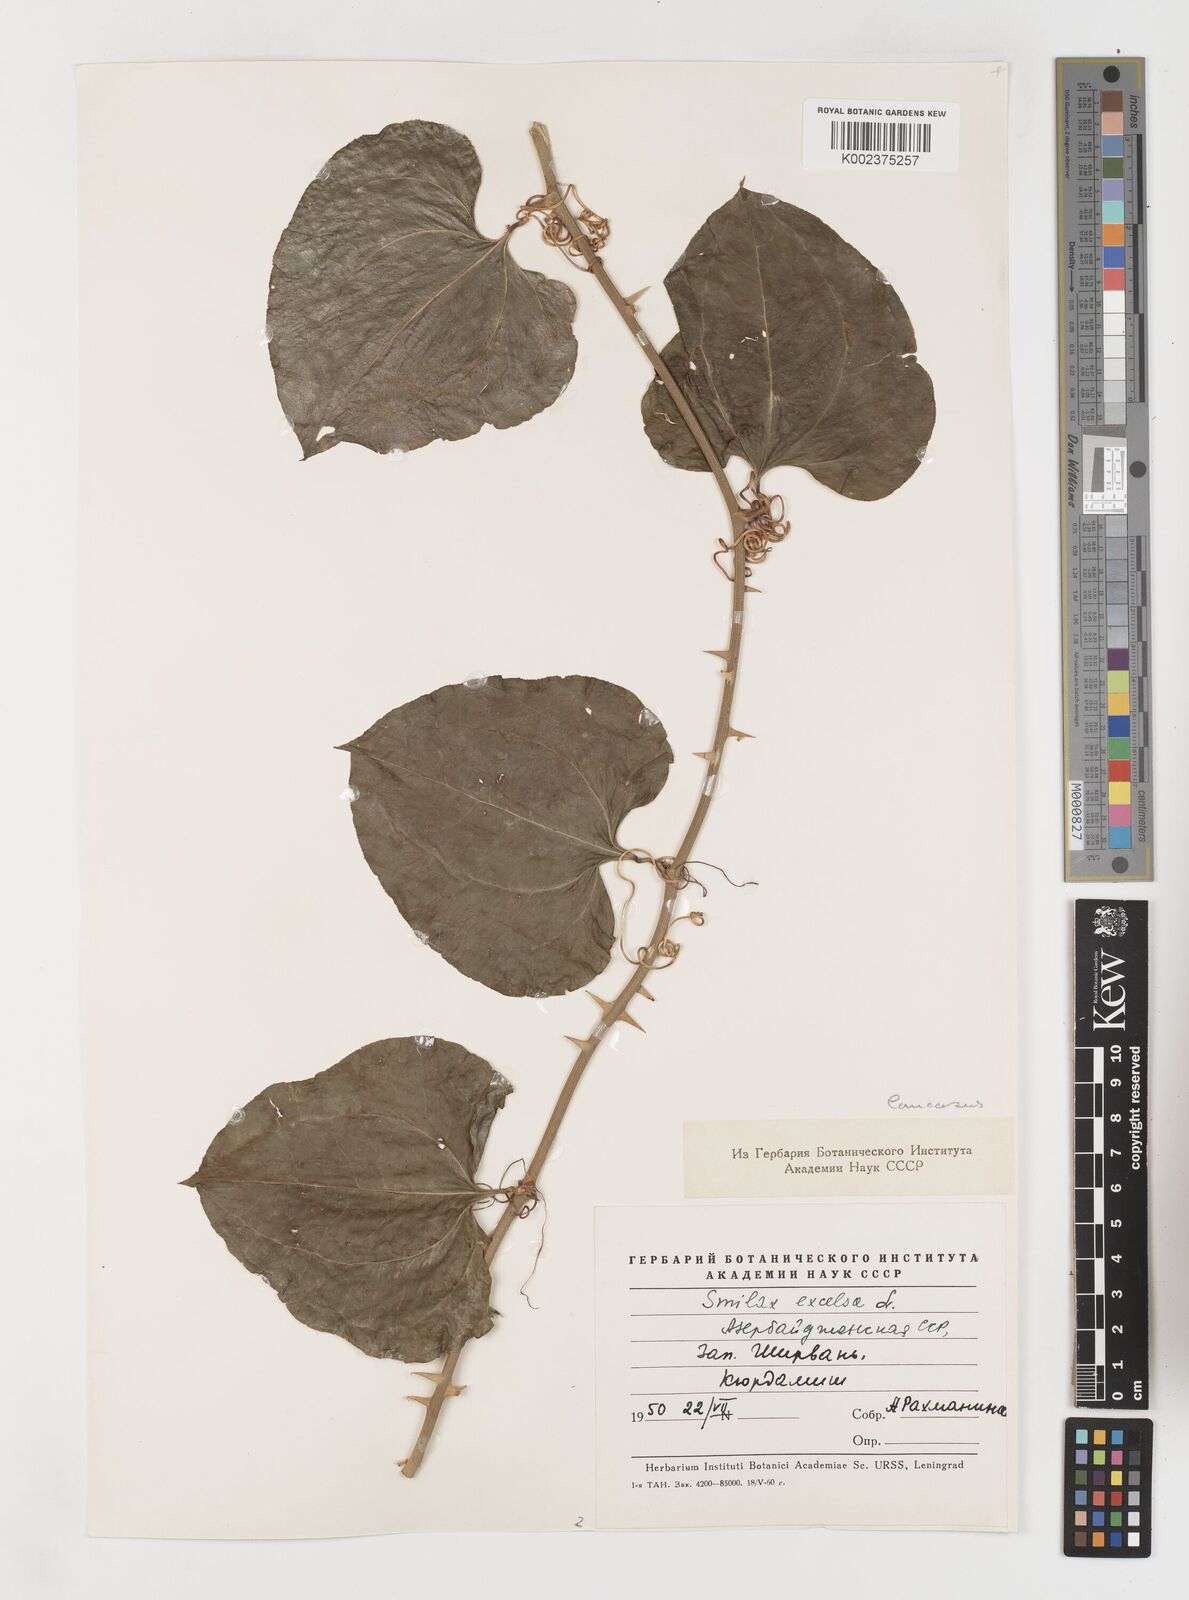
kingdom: Plantae
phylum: Tracheophyta
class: Liliopsida
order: Liliales
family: Smilacaceae
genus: Smilax
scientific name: Smilax excelsa
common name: Larger smilax
